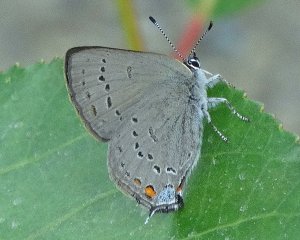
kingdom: Animalia
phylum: Arthropoda
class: Insecta
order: Lepidoptera
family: Lycaenidae
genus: Strymon
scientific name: Strymon acadica
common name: California Hairstreak
